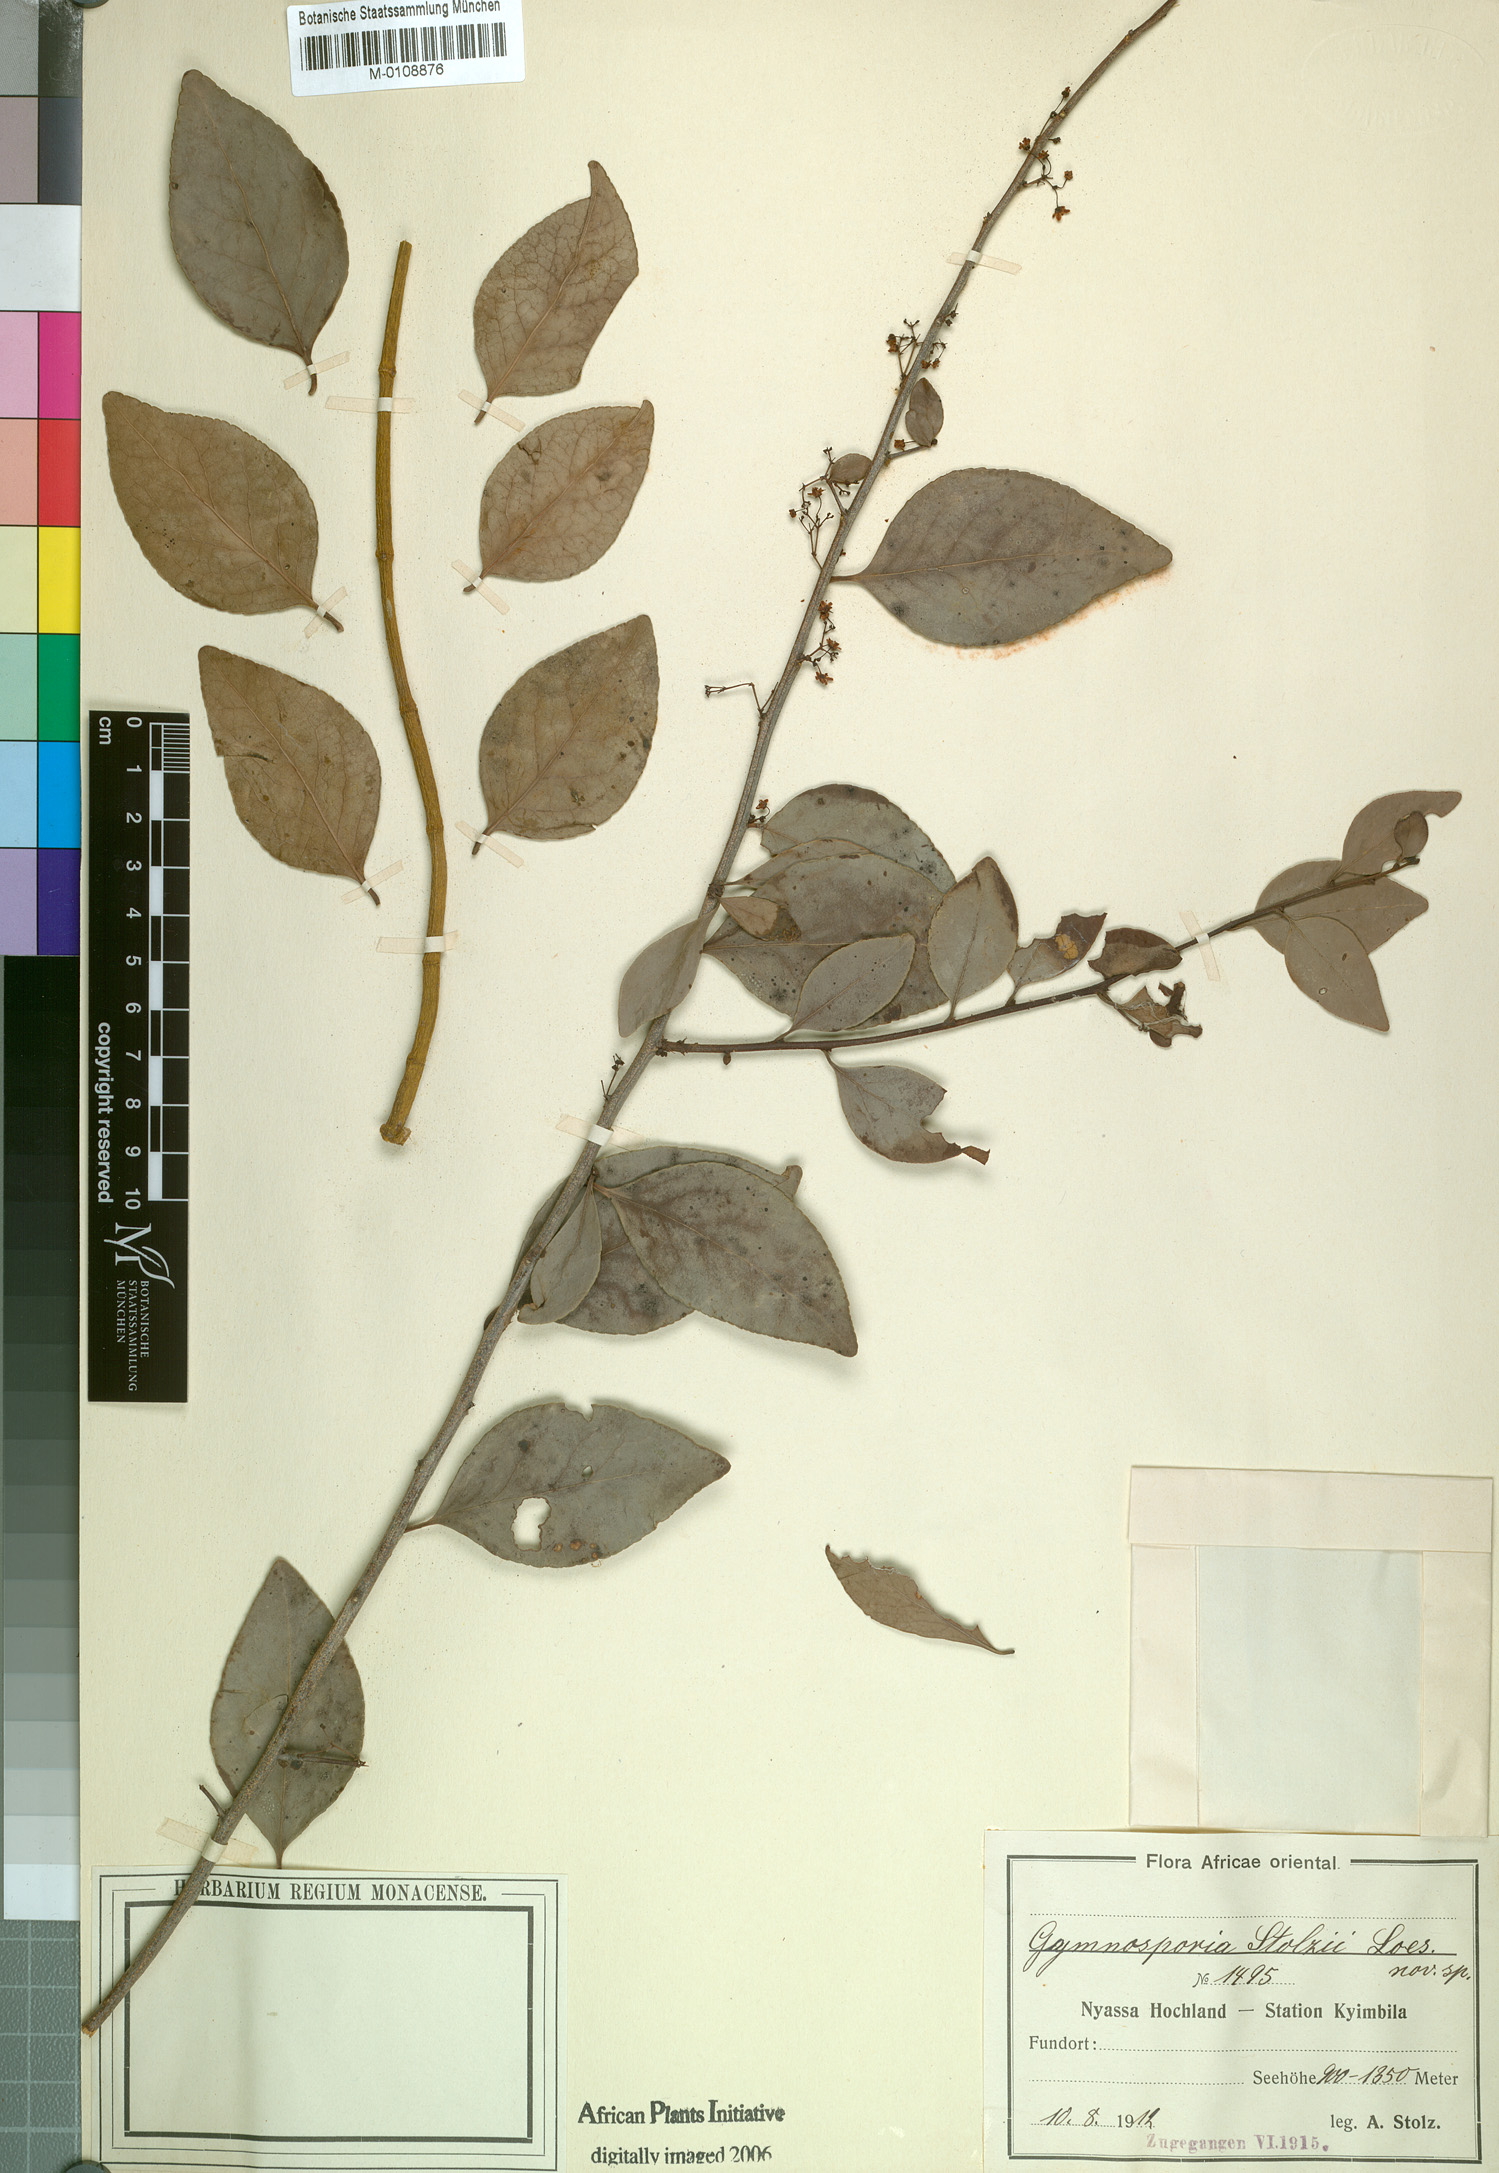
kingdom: Plantae
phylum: Tracheophyta
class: Magnoliopsida
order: Celastrales
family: Celastraceae
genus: Gymnosporia
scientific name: Gymnosporia harveyana
